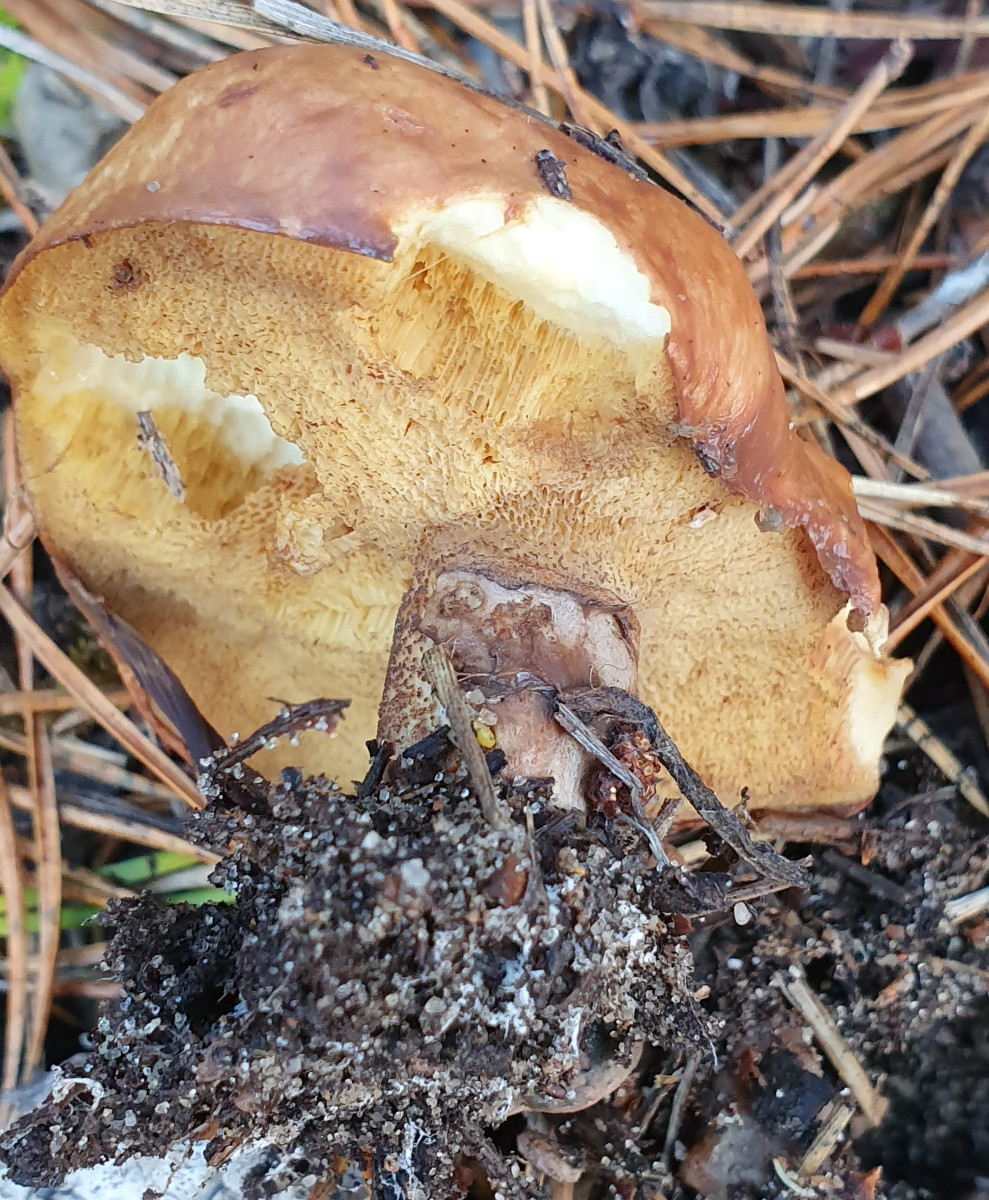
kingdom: Fungi
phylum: Basidiomycota
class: Agaricomycetes
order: Boletales
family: Suillaceae
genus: Suillus
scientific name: Suillus granulatus
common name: kornet slimrørhat
